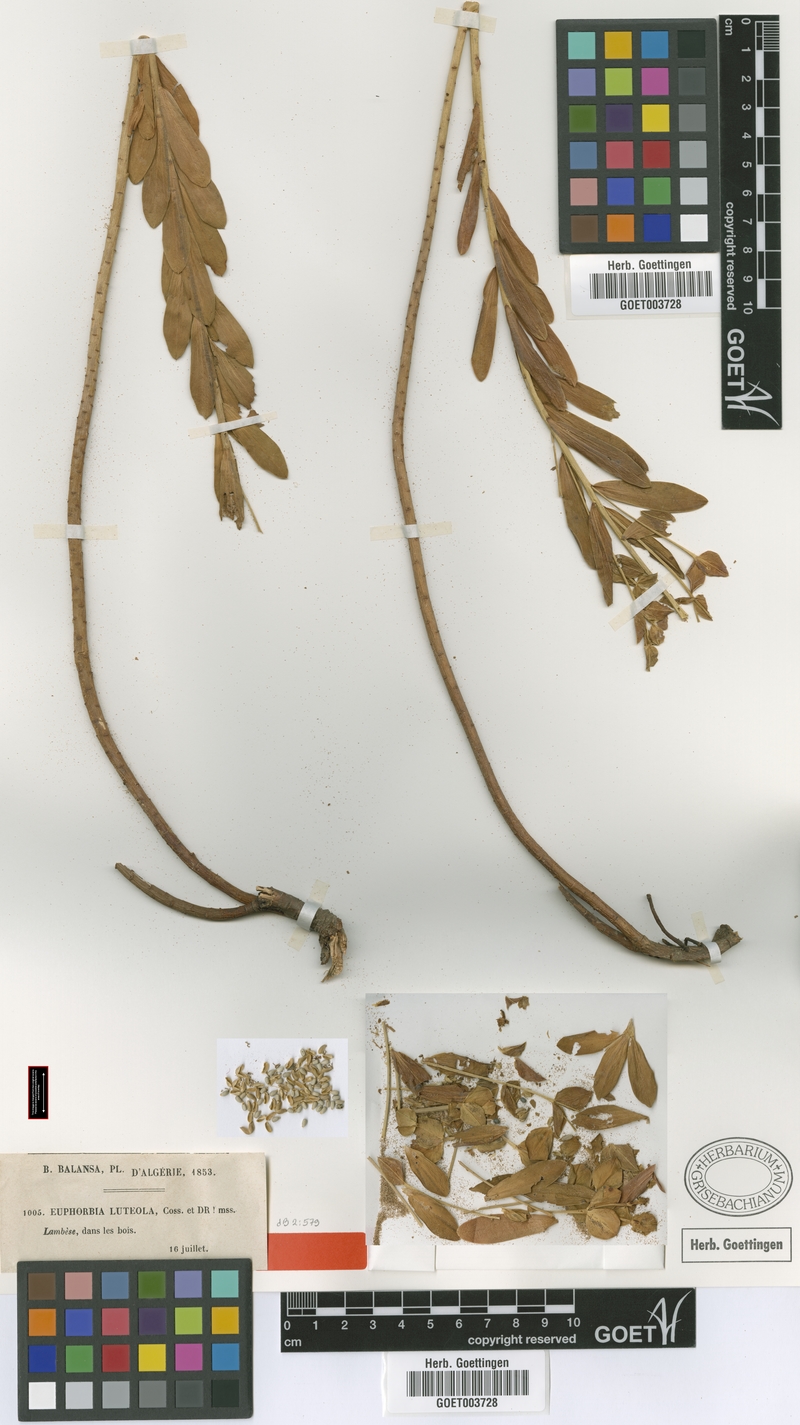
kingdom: Plantae
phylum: Tracheophyta
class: Magnoliopsida
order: Malpighiales
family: Euphorbiaceae
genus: Euphorbia
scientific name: Euphorbia luteola
